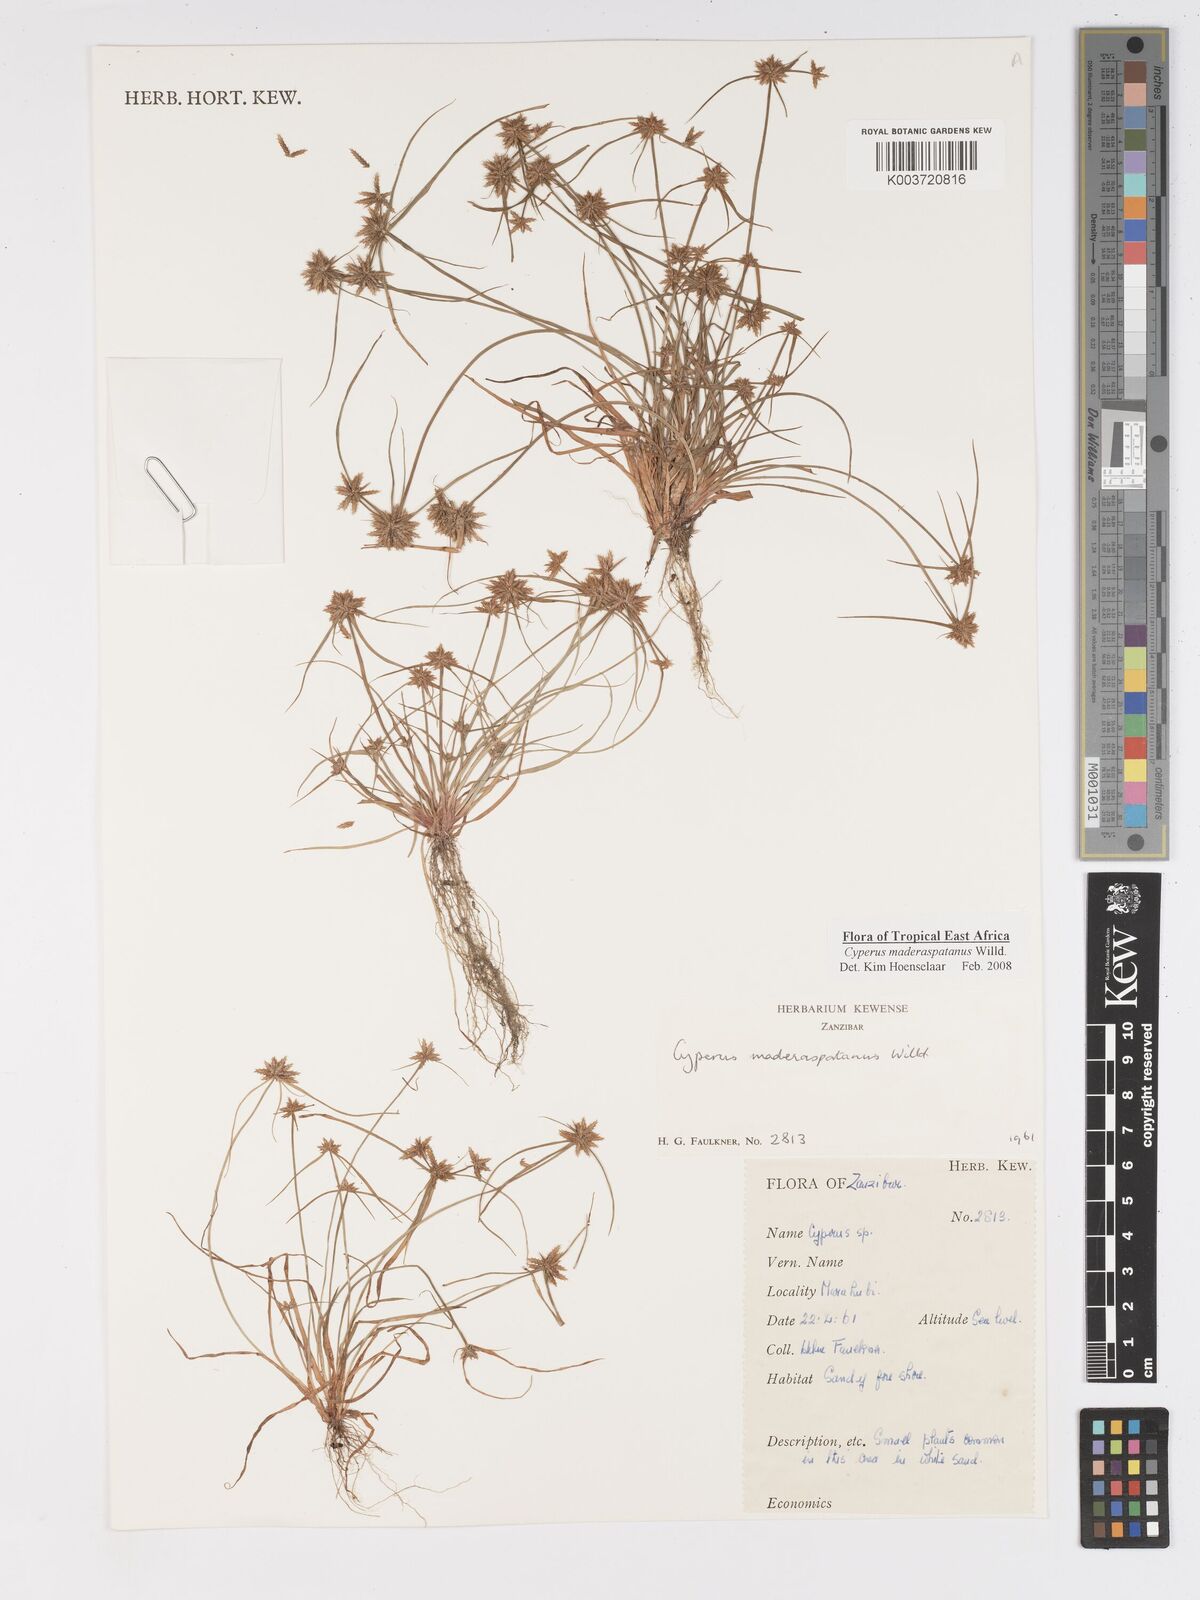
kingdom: Plantae
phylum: Tracheophyta
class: Liliopsida
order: Poales
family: Cyperaceae
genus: Cyperus
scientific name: Cyperus maderaspatanus
